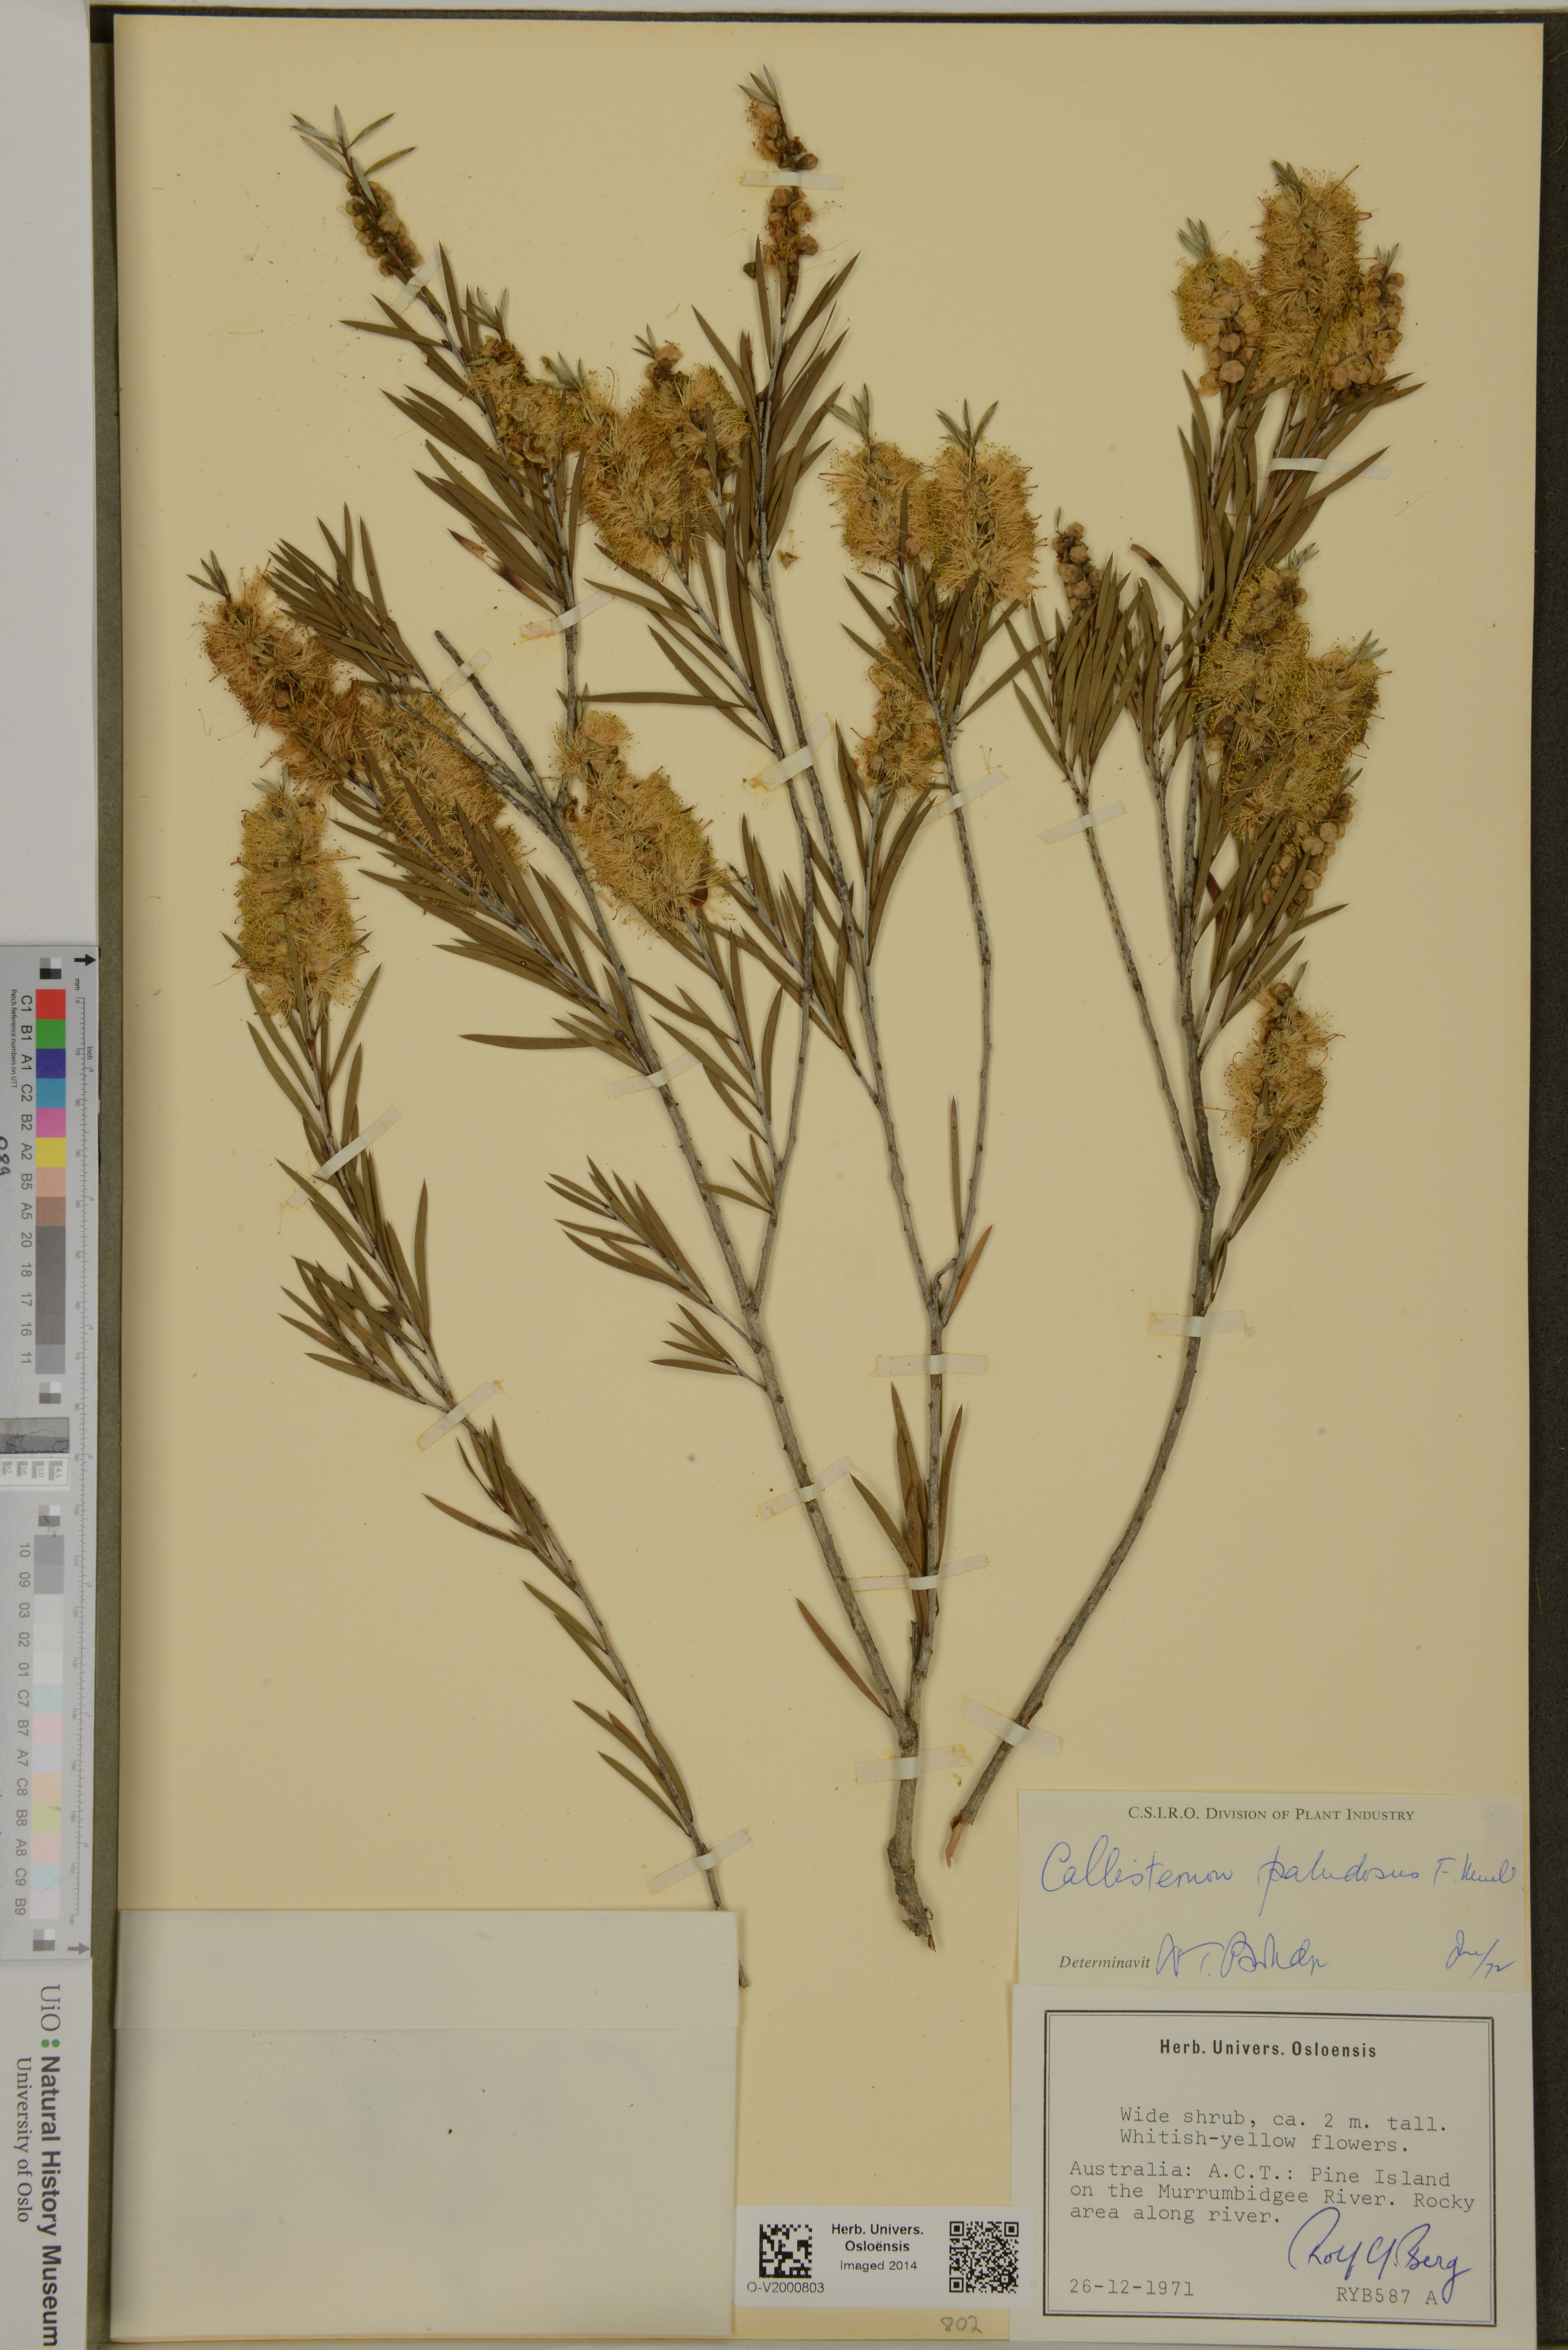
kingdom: Plantae
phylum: Tracheophyta
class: Magnoliopsida
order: Myrtales
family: Myrtaceae
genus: Callistemon
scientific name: Callistemon paludosus
